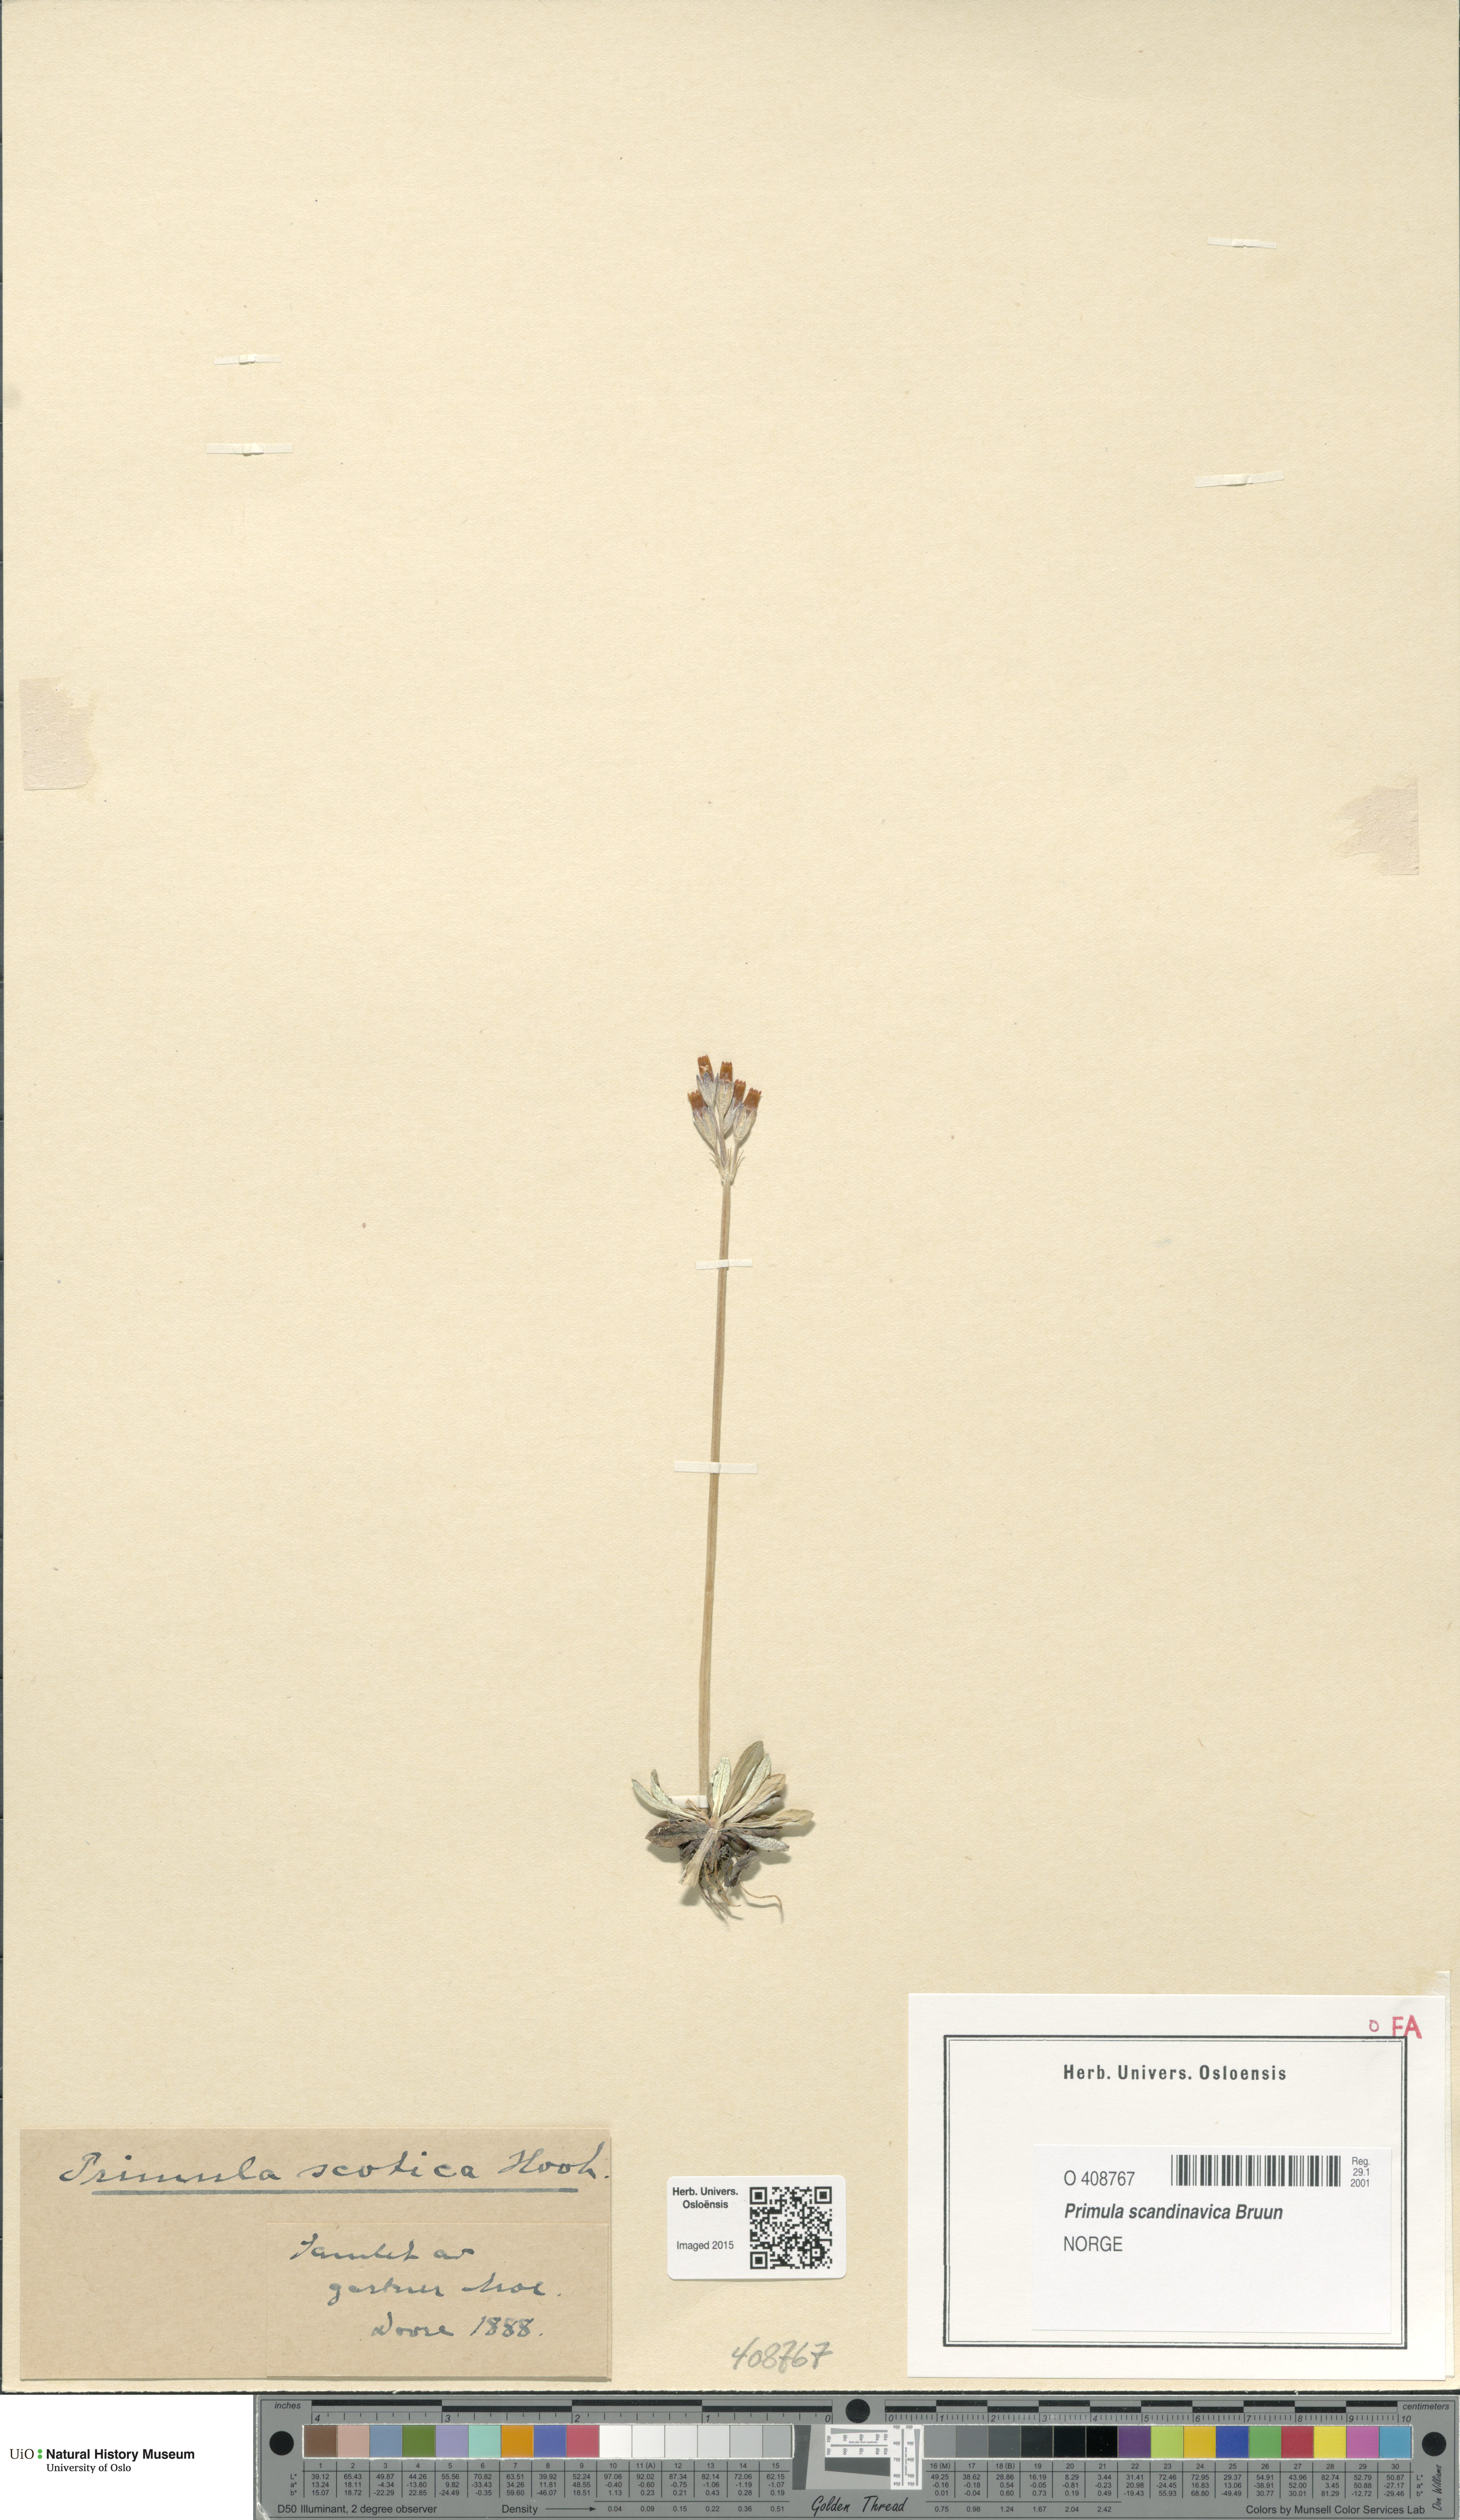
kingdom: Plantae
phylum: Tracheophyta
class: Magnoliopsida
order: Ericales
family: Primulaceae
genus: Primula
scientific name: Primula scandinavica
